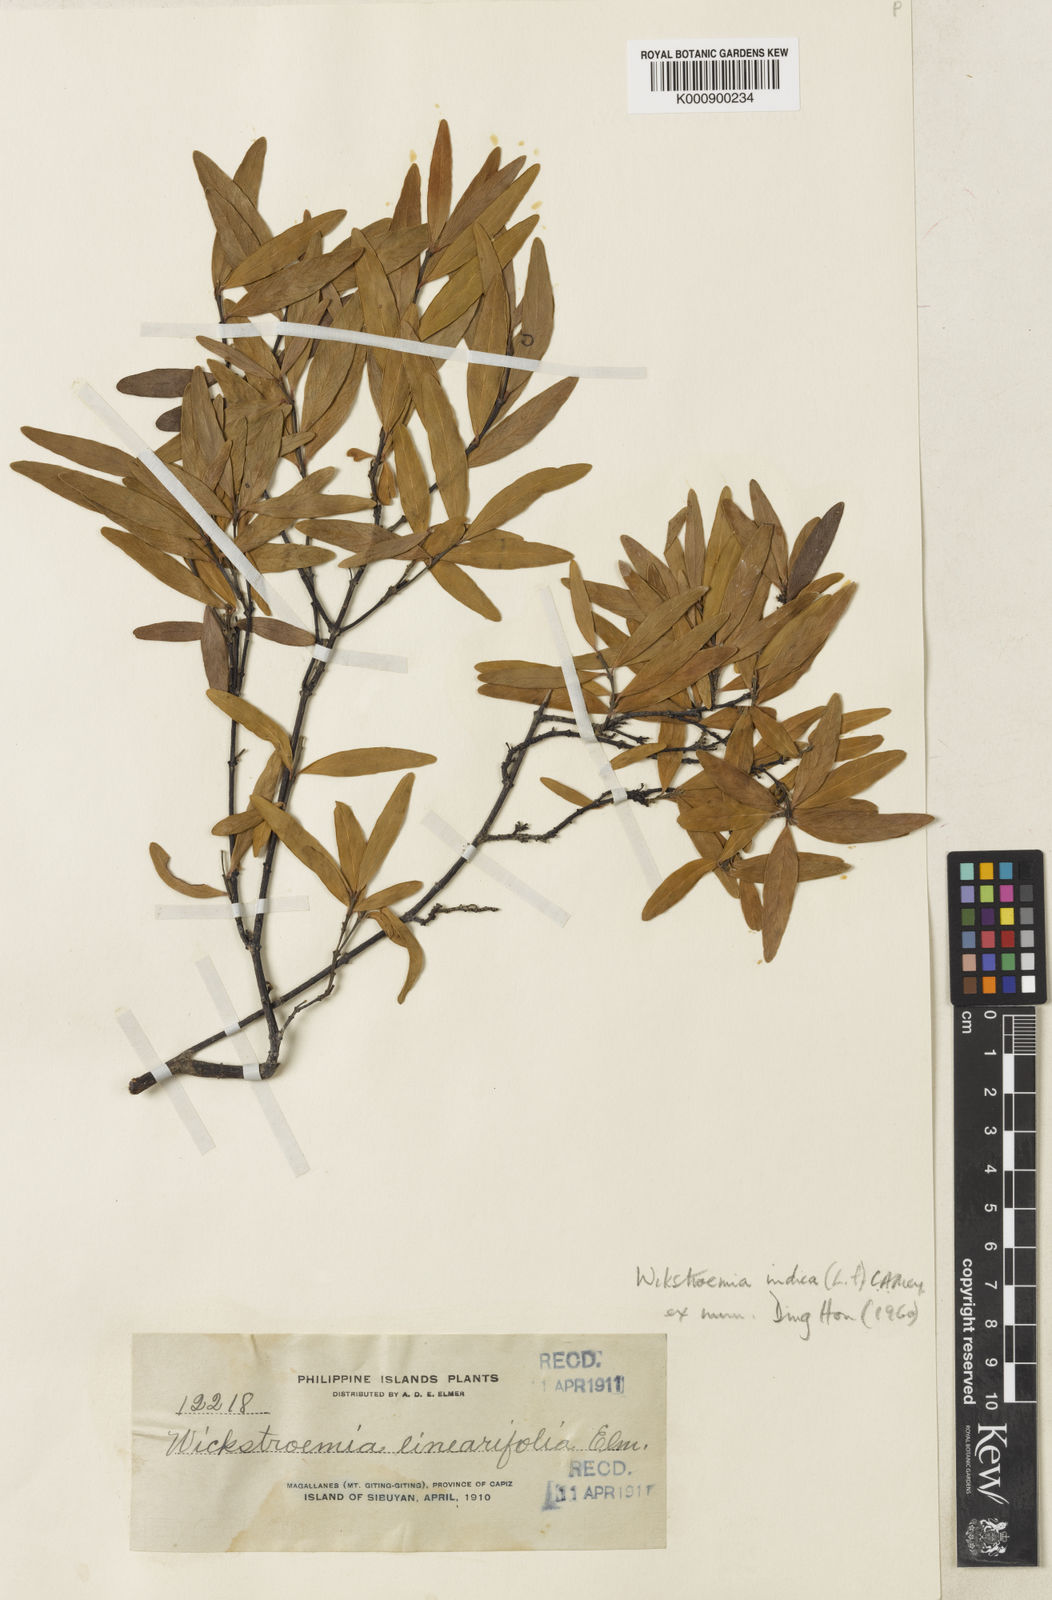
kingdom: Plantae
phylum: Tracheophyta
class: Magnoliopsida
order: Malvales
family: Thymelaeaceae
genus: Wikstroemia
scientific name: Wikstroemia indica
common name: Tiebush
